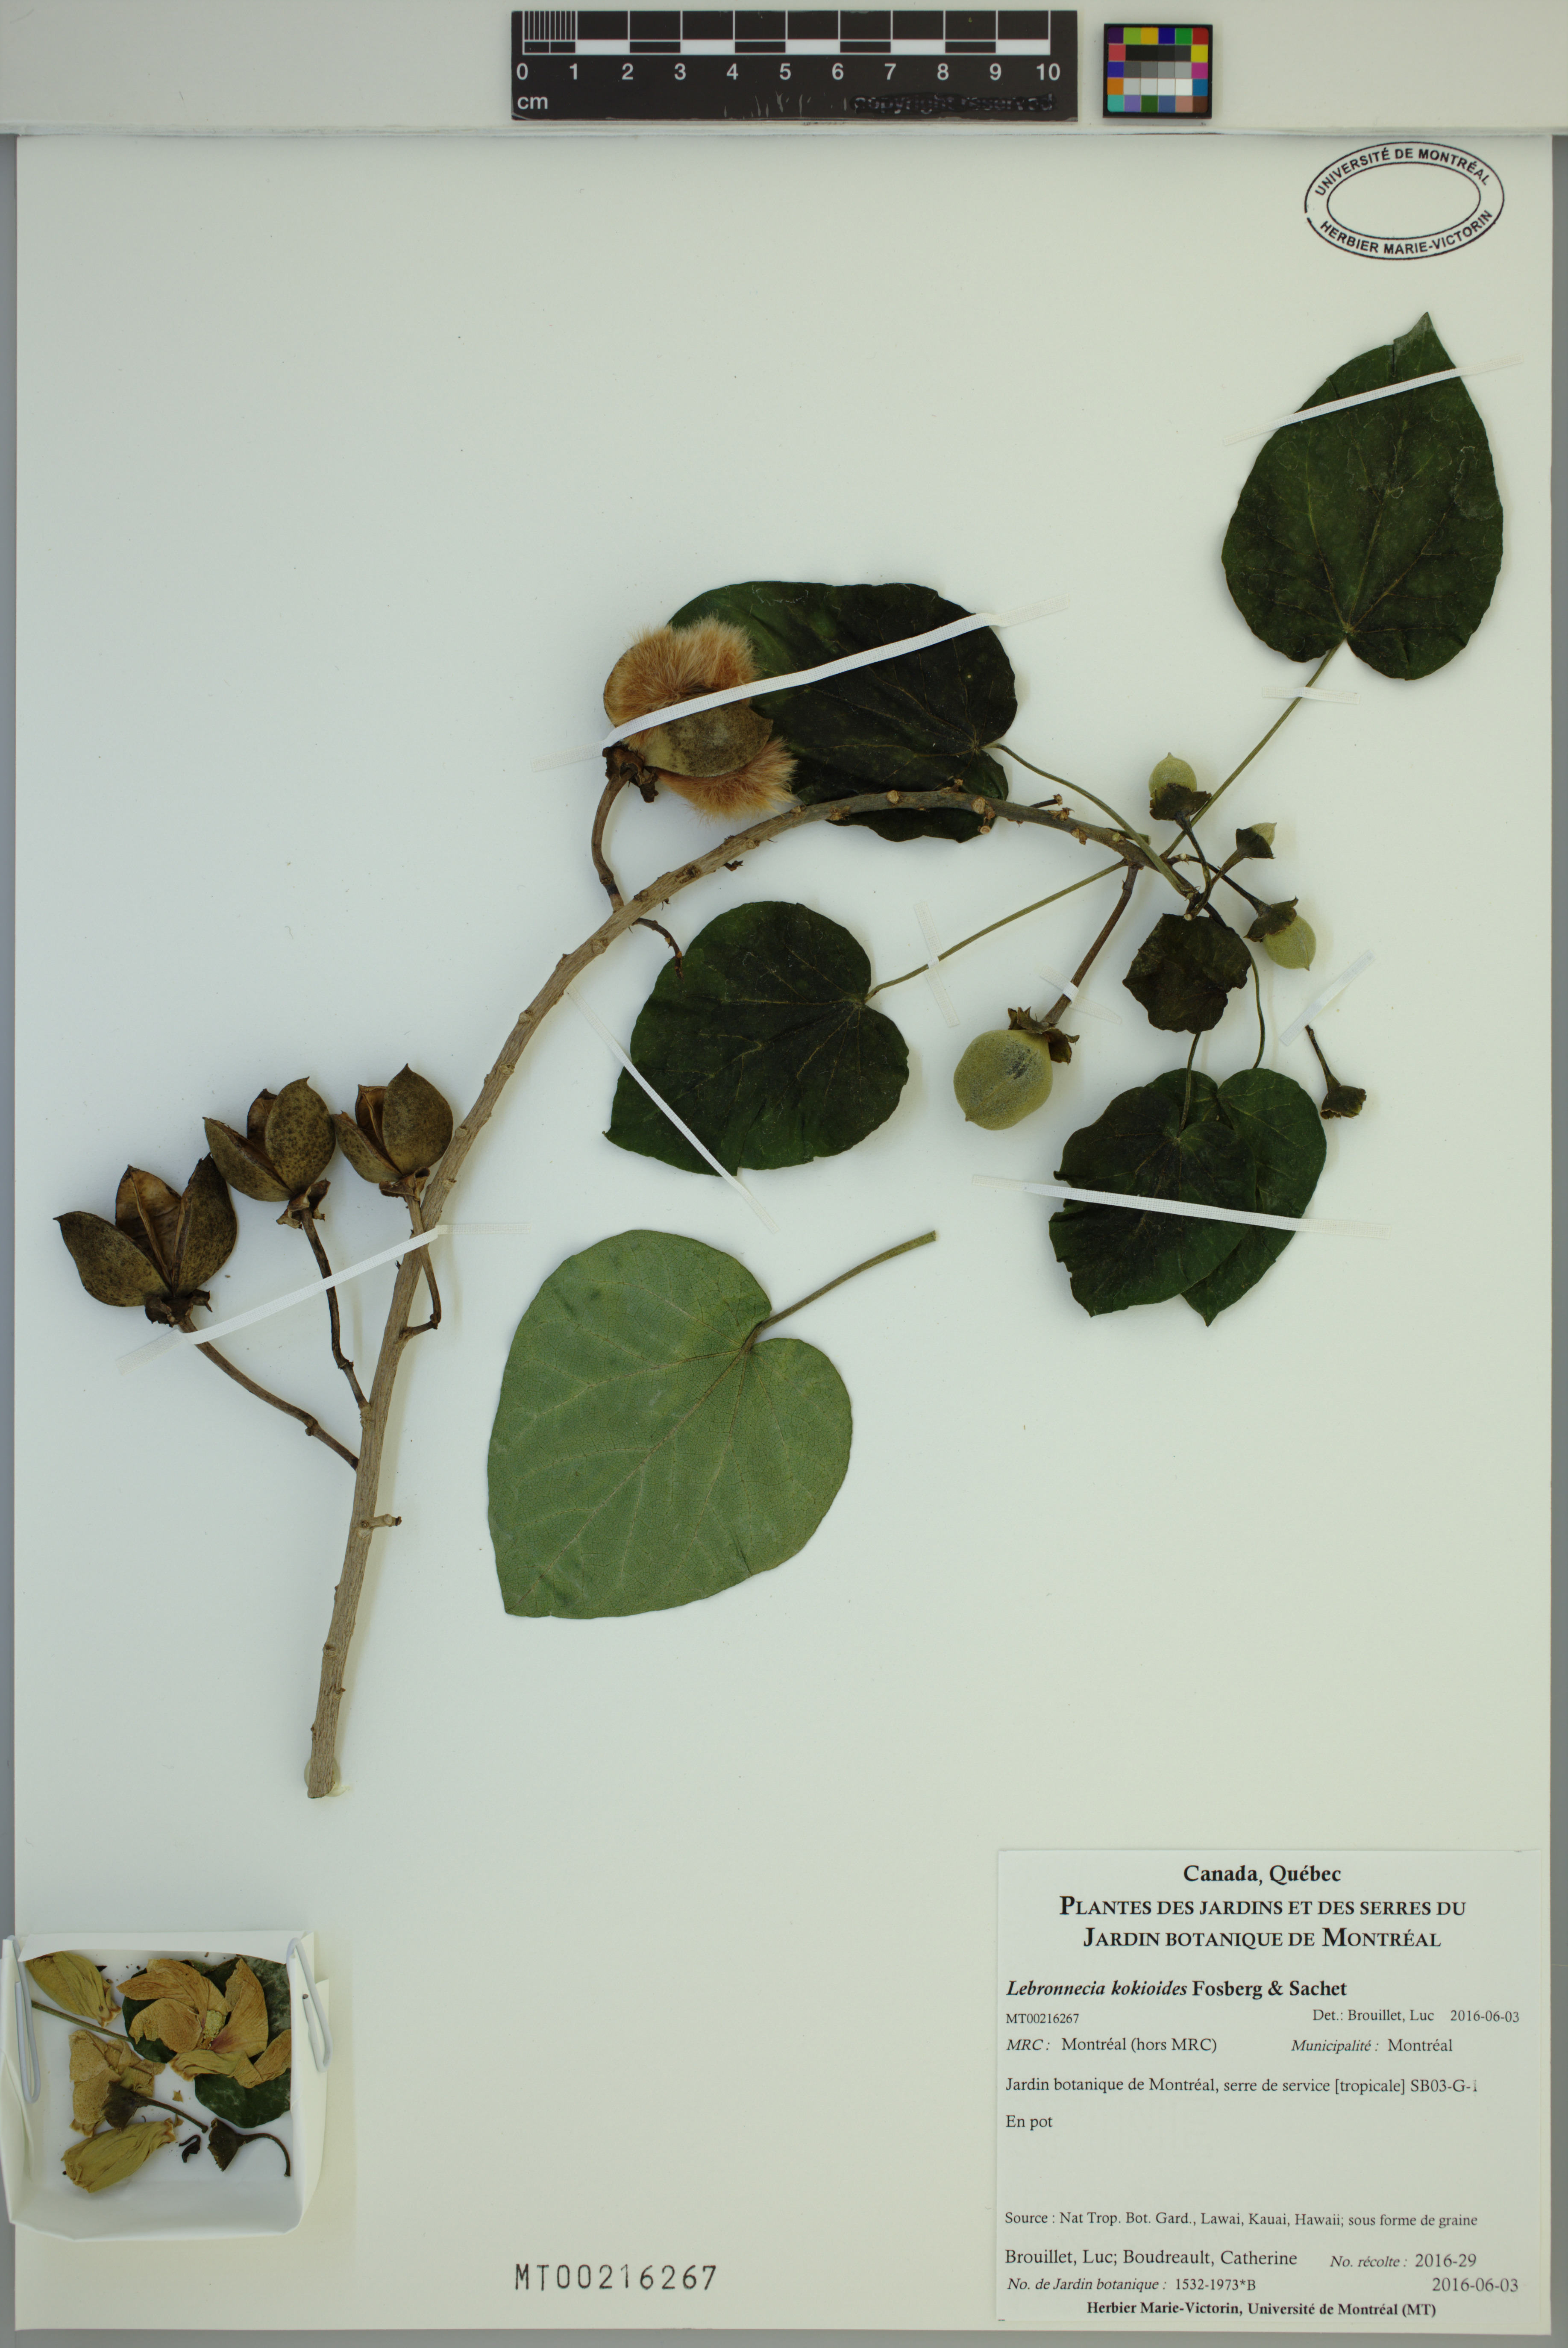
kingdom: Plantae
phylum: Tracheophyta
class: Magnoliopsida
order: Malvales
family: Malvaceae
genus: Lebronnecia
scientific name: Lebronnecia kokioides
